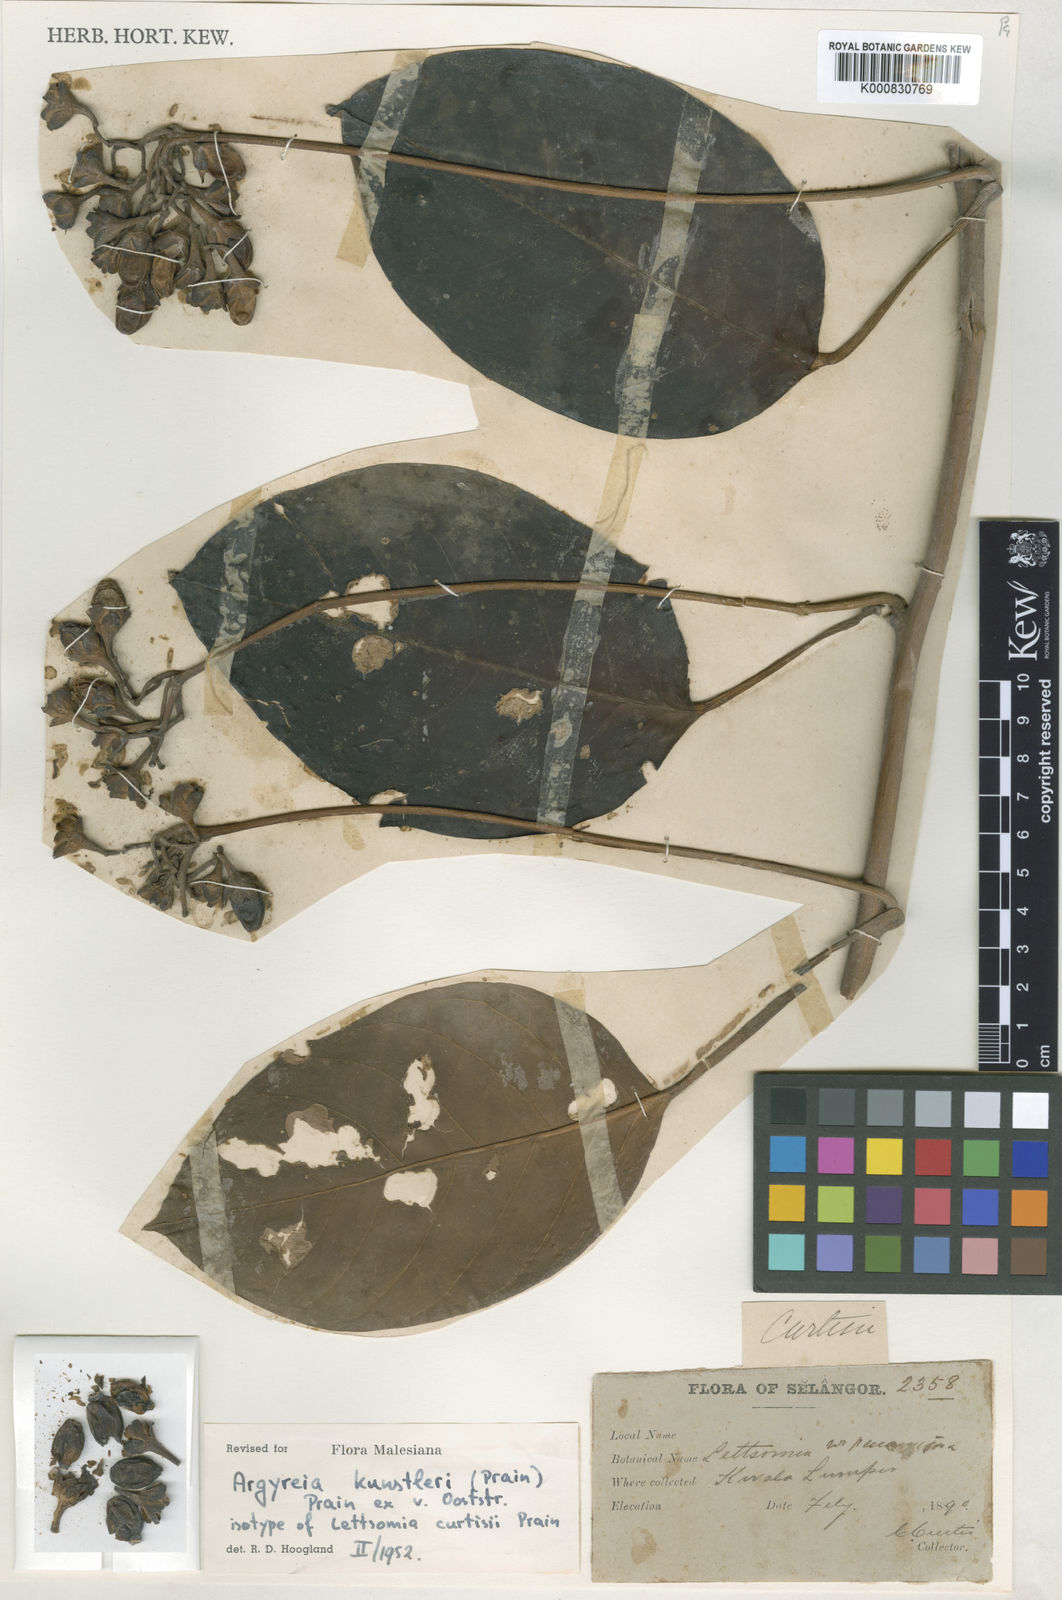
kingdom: Plantae
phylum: Tracheophyta
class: Magnoliopsida
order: Solanales
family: Convolvulaceae
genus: Argyreia
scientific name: Argyreia kunstleri
